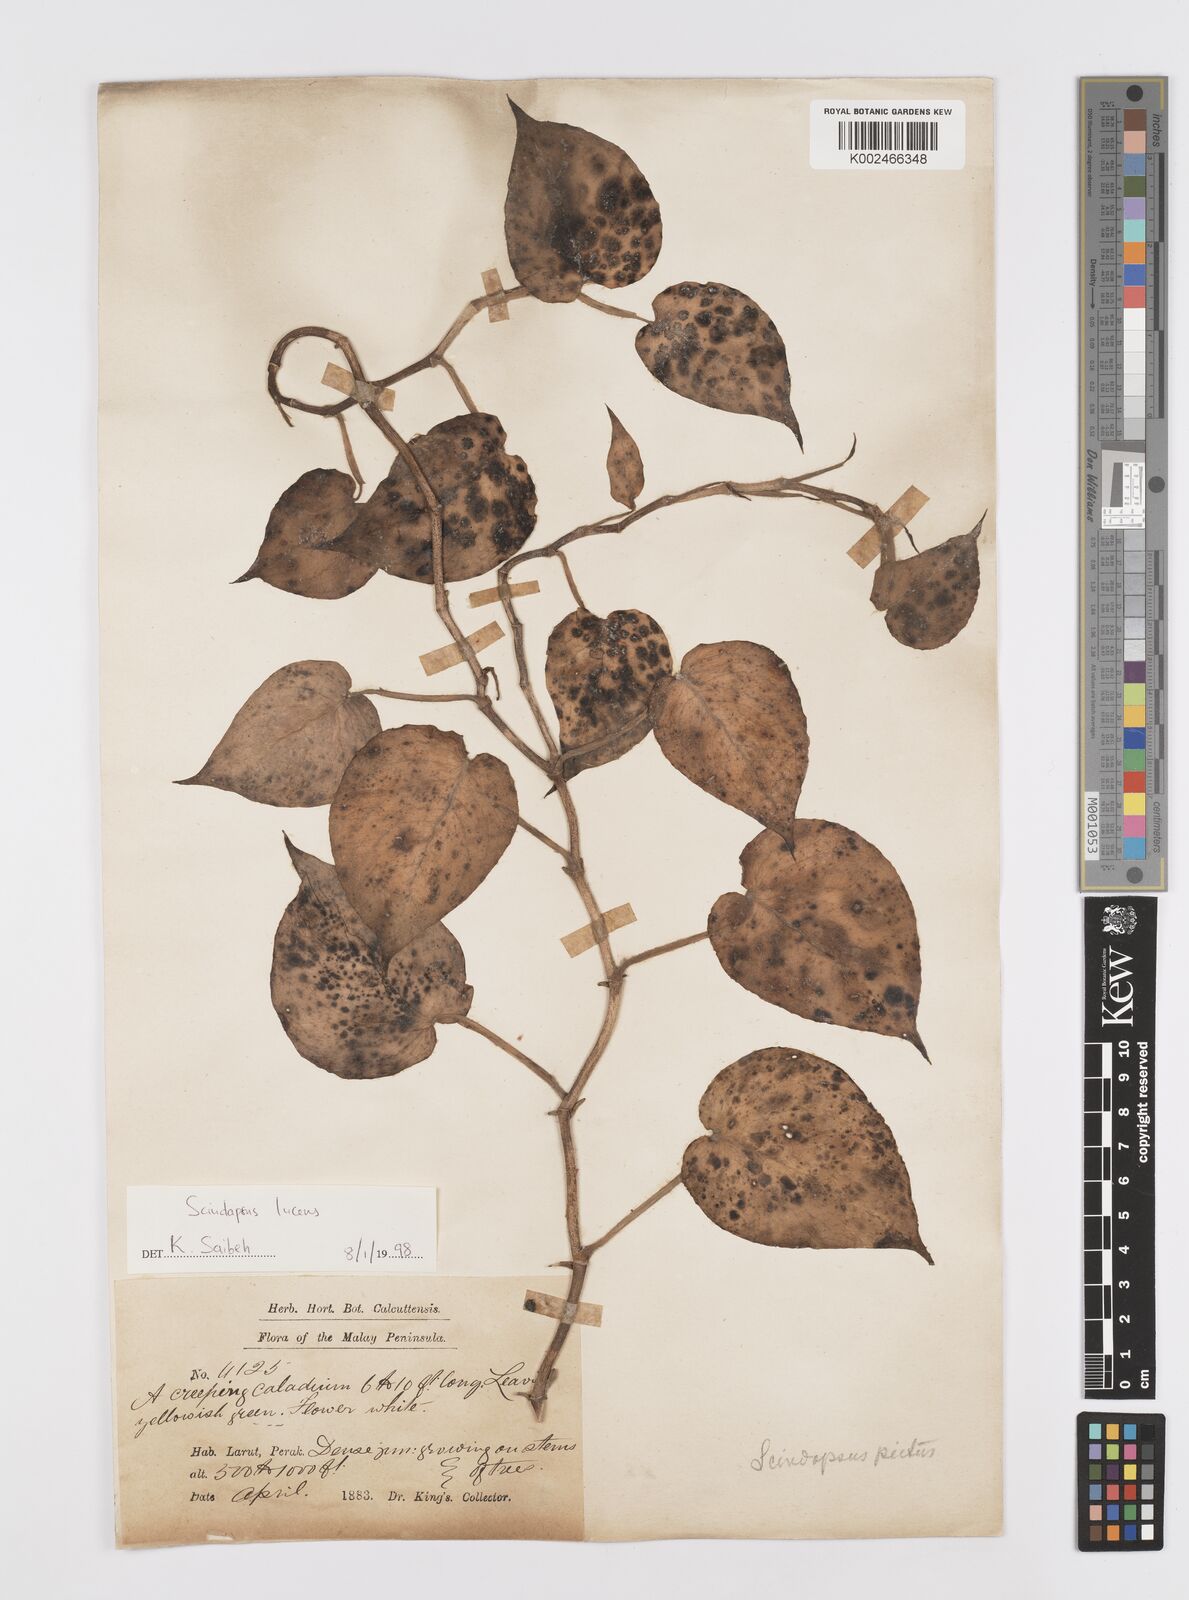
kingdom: Plantae
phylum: Tracheophyta
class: Liliopsida
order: Alismatales
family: Araceae
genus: Scindapsus
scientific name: Scindapsus lucens
